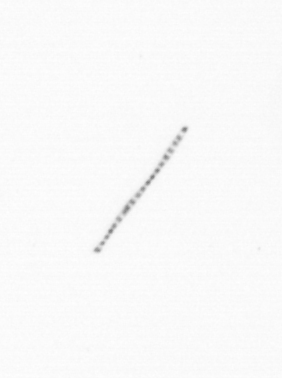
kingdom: Chromista
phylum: Ochrophyta
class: Bacillariophyceae
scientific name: Bacillariophyceae
